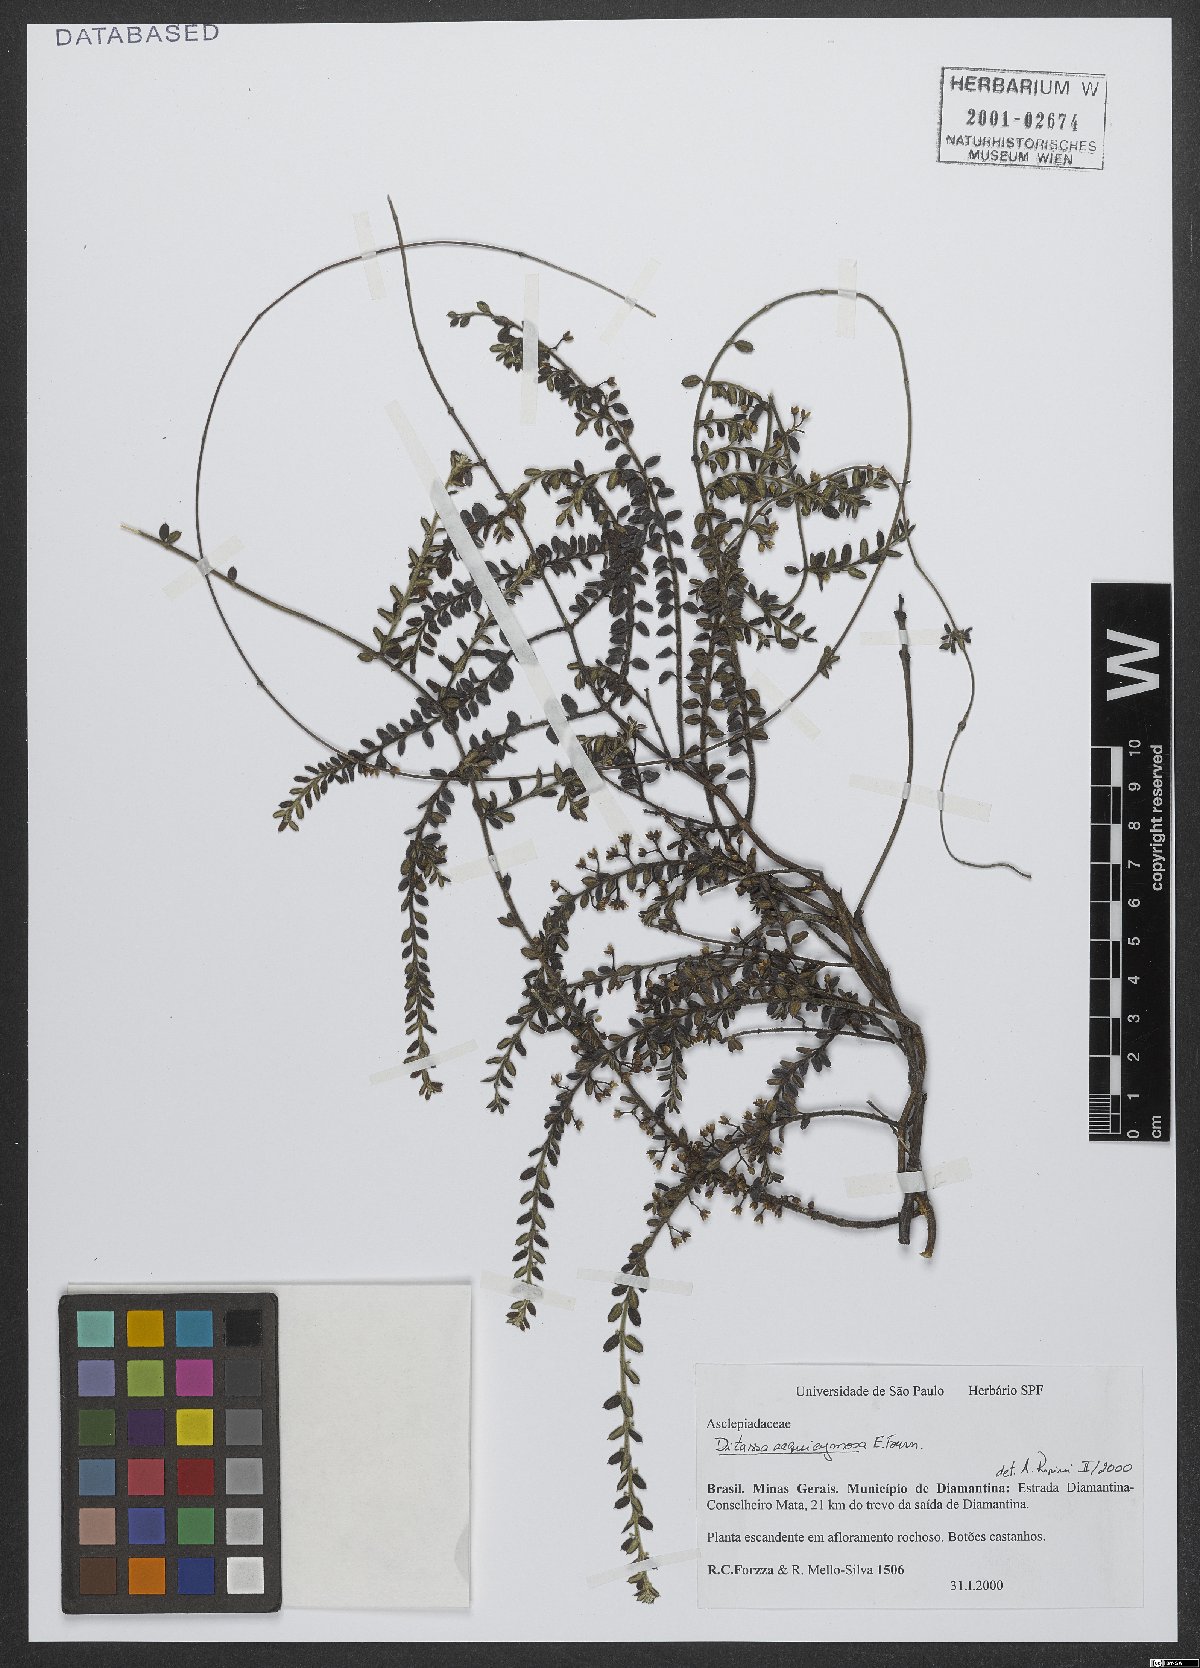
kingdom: Plantae
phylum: Tracheophyta
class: Magnoliopsida
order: Gentianales
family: Apocynaceae
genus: Ditassa
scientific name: Ditassa aequicymosa
